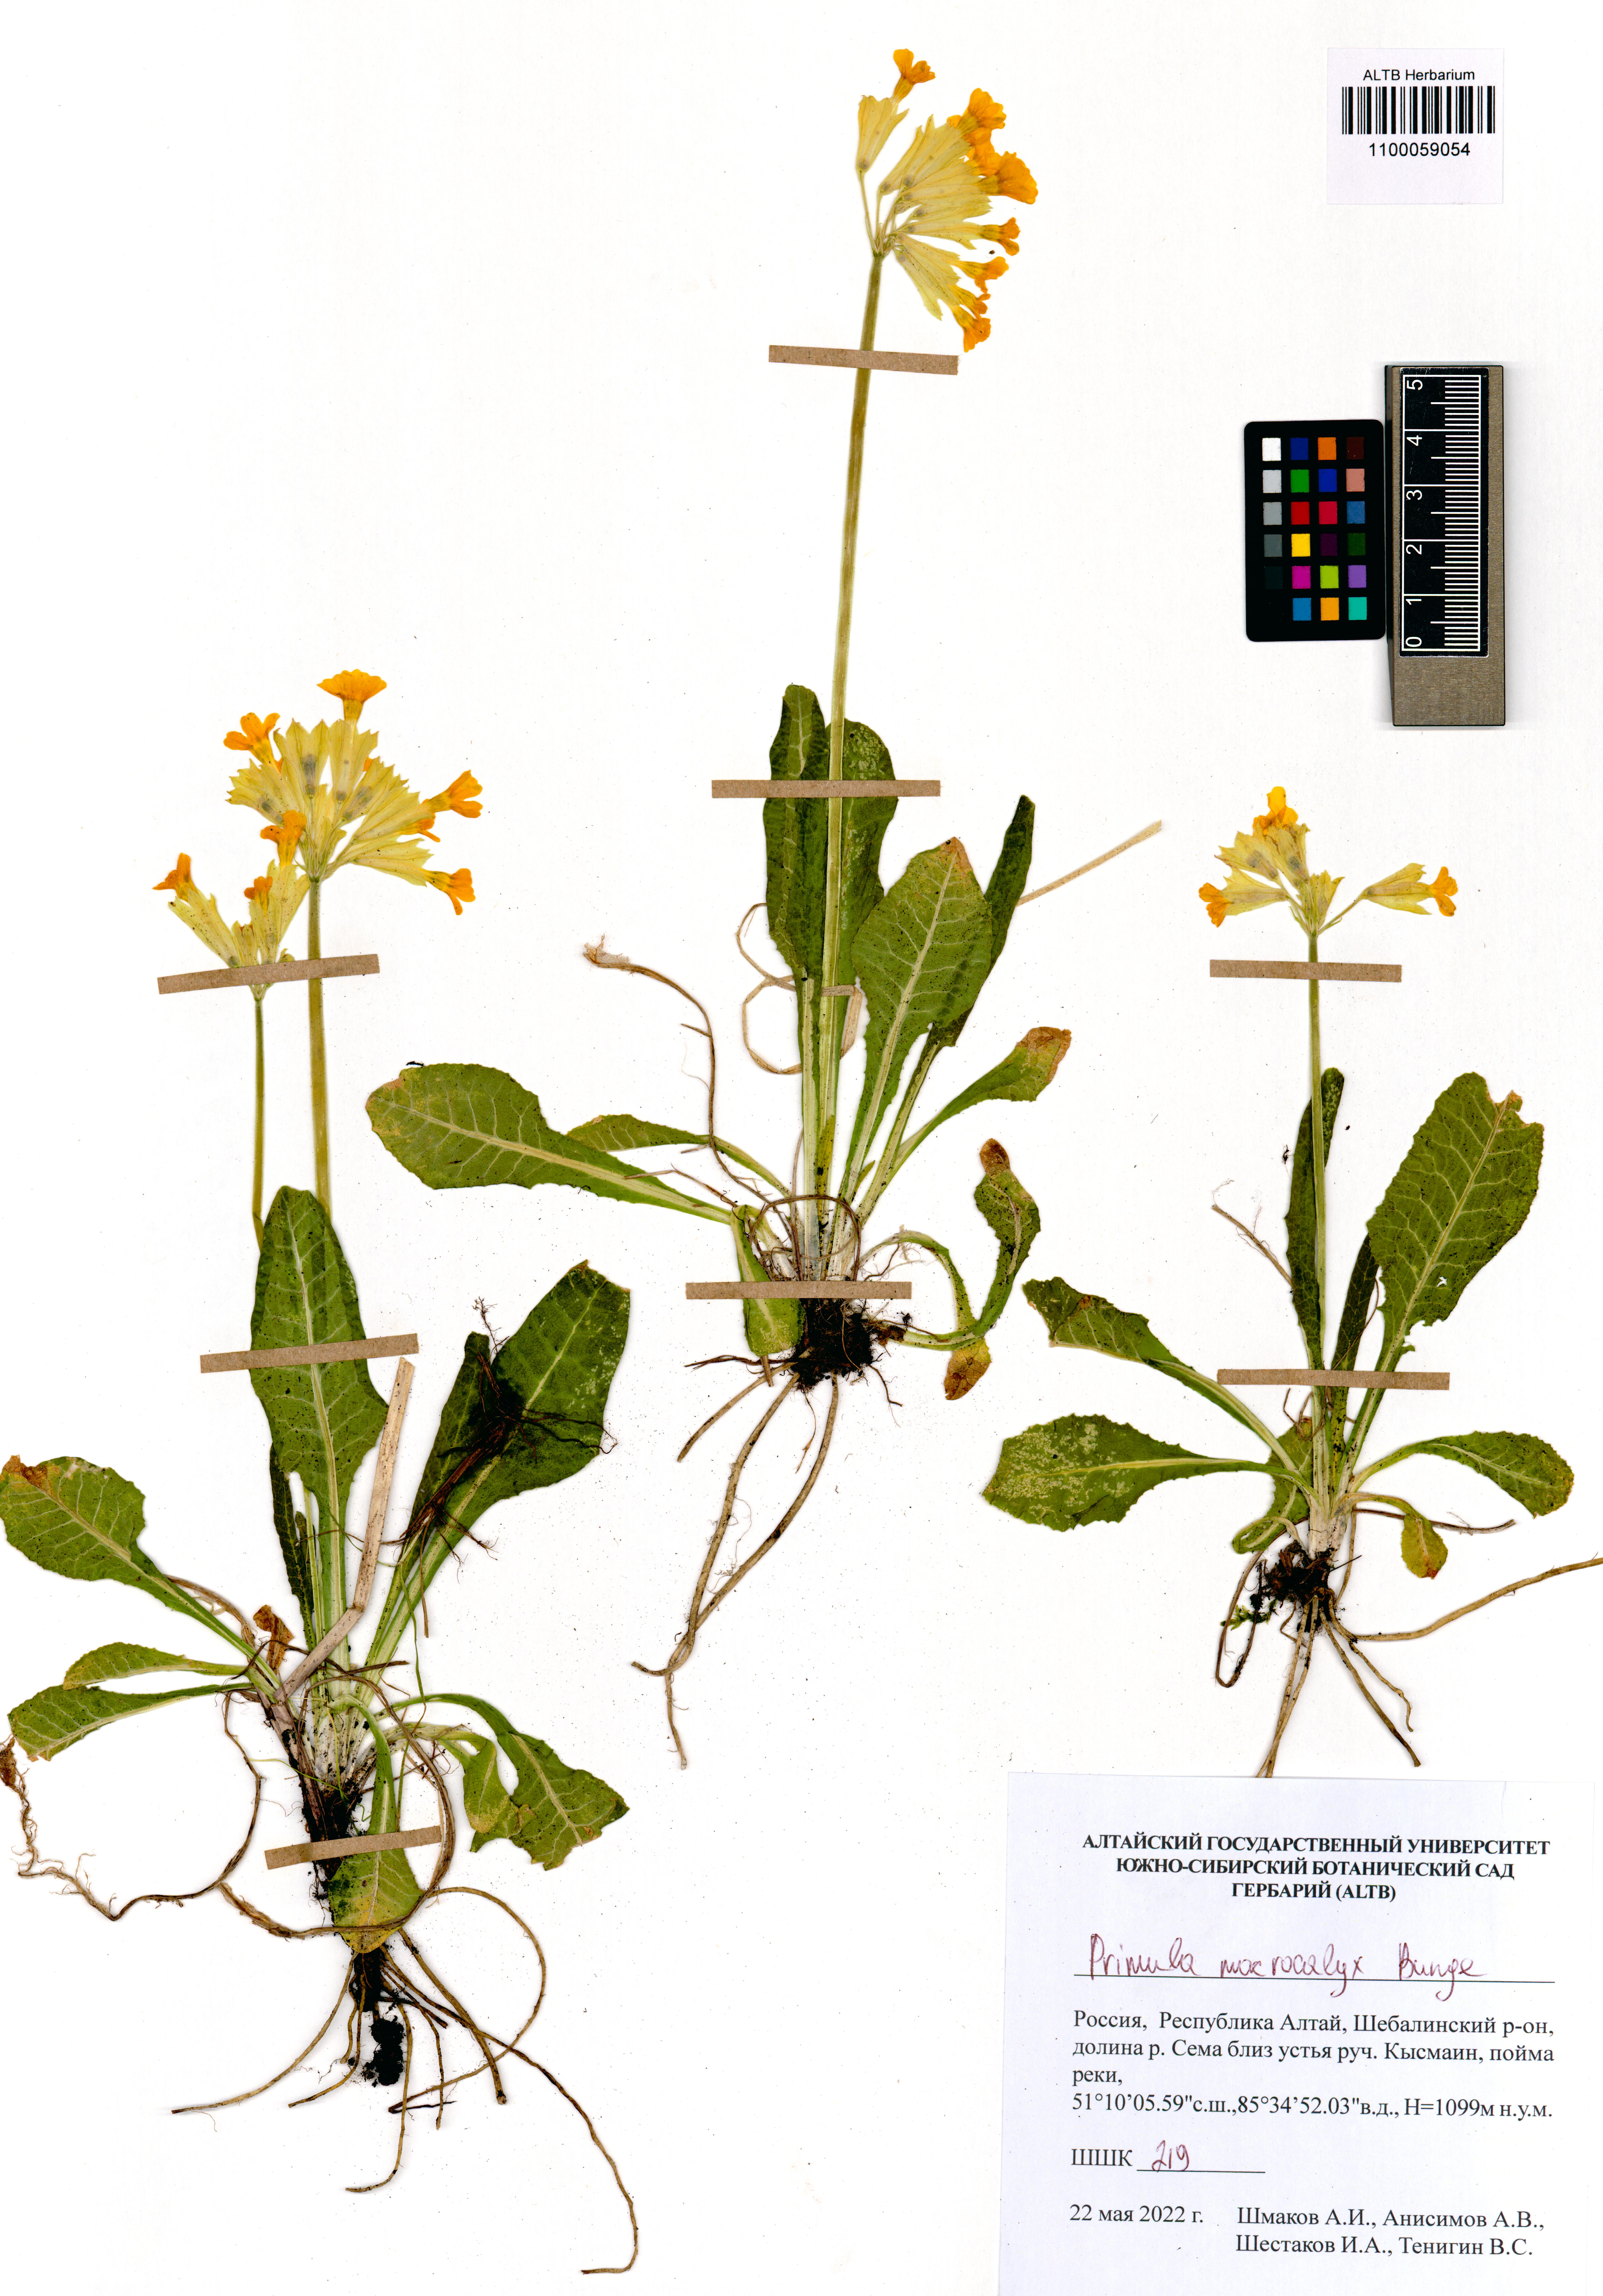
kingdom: Plantae
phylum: Tracheophyta
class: Magnoliopsida
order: Ericales
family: Primulaceae
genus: Primula
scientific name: Primula veris
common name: Cowslip
